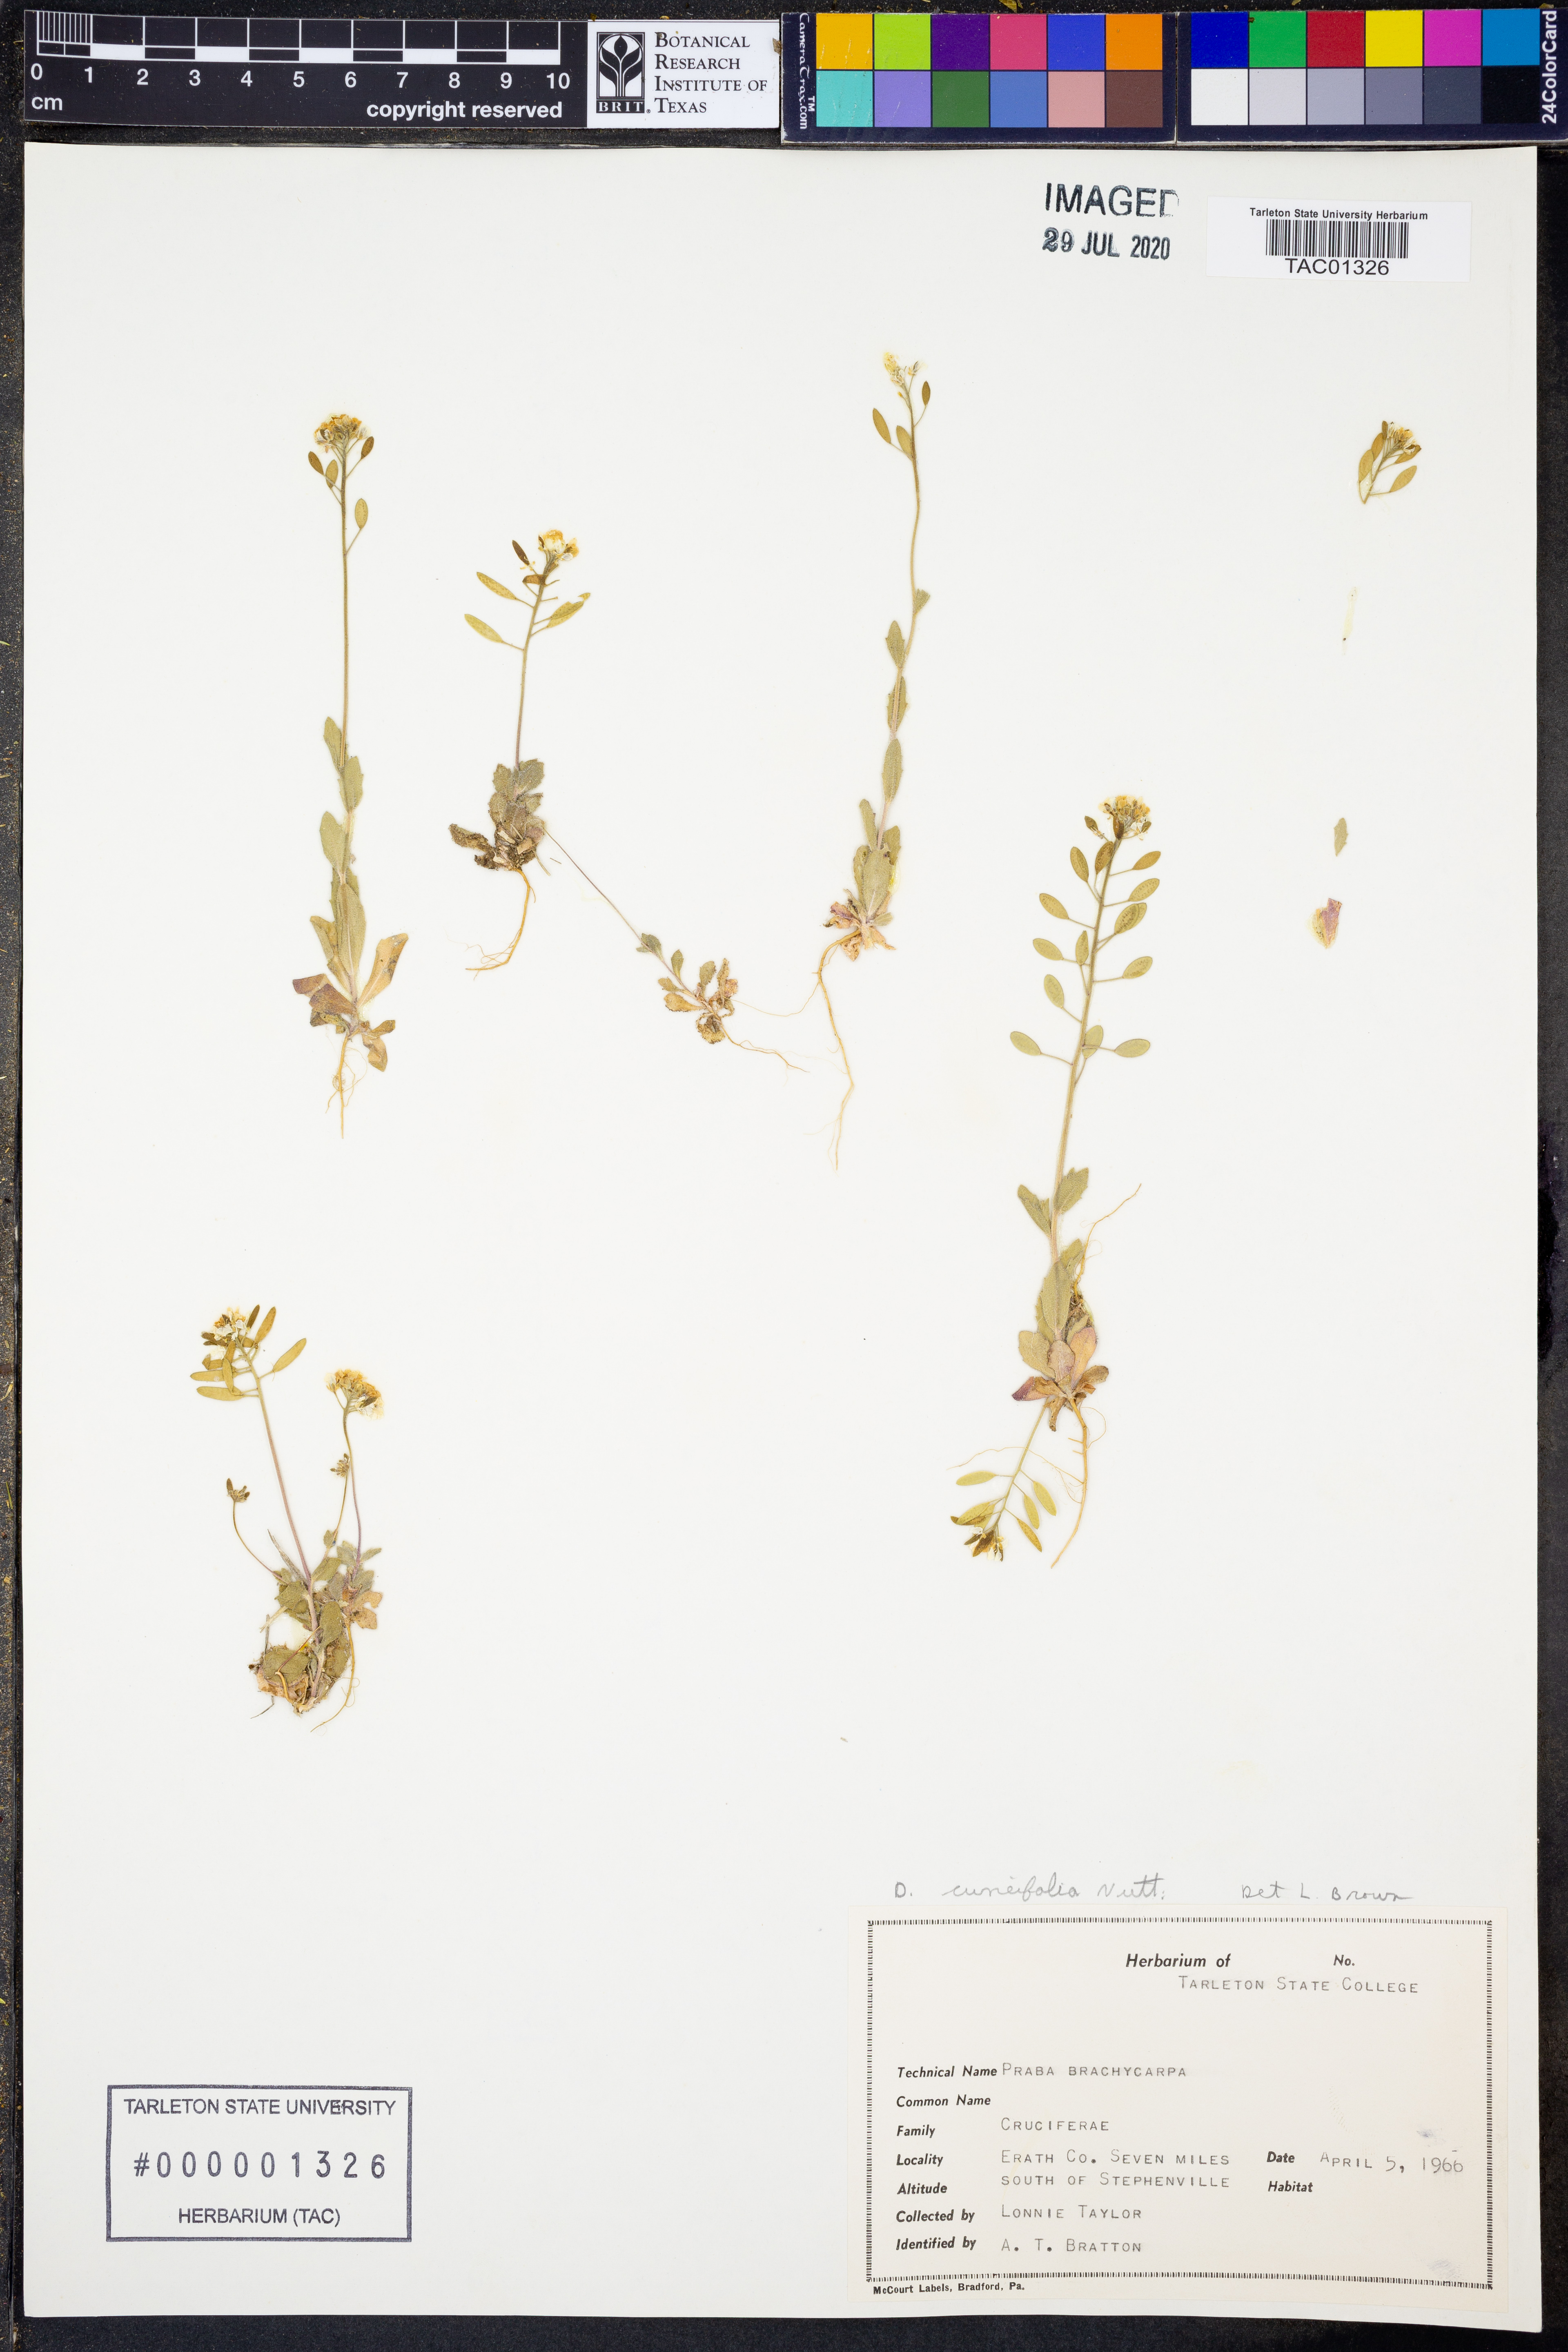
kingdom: Plantae
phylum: Tracheophyta
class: Magnoliopsida
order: Brassicales
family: Brassicaceae
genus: Tomostima
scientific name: Tomostima cuneifolia
